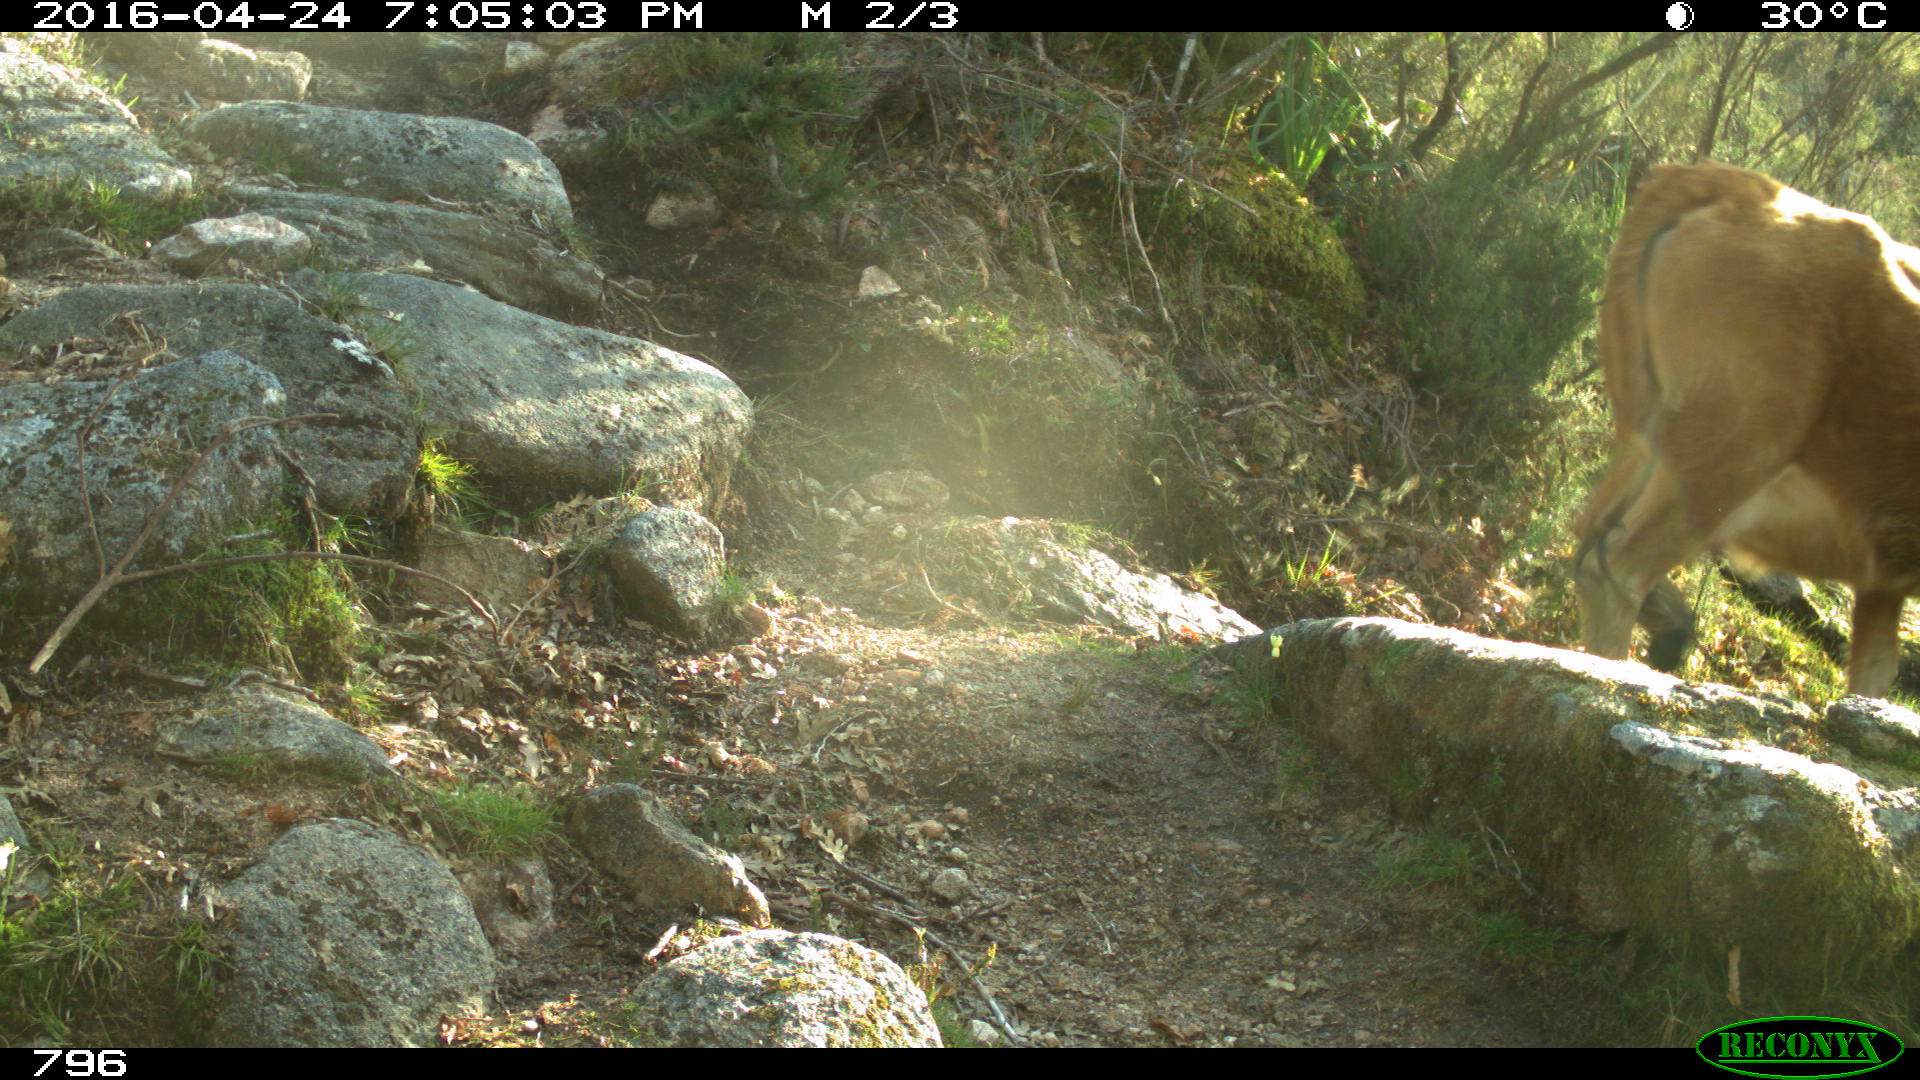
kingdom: Animalia
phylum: Chordata
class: Mammalia
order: Artiodactyla
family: Bovidae
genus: Bos
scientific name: Bos taurus
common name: Domesticated cattle
